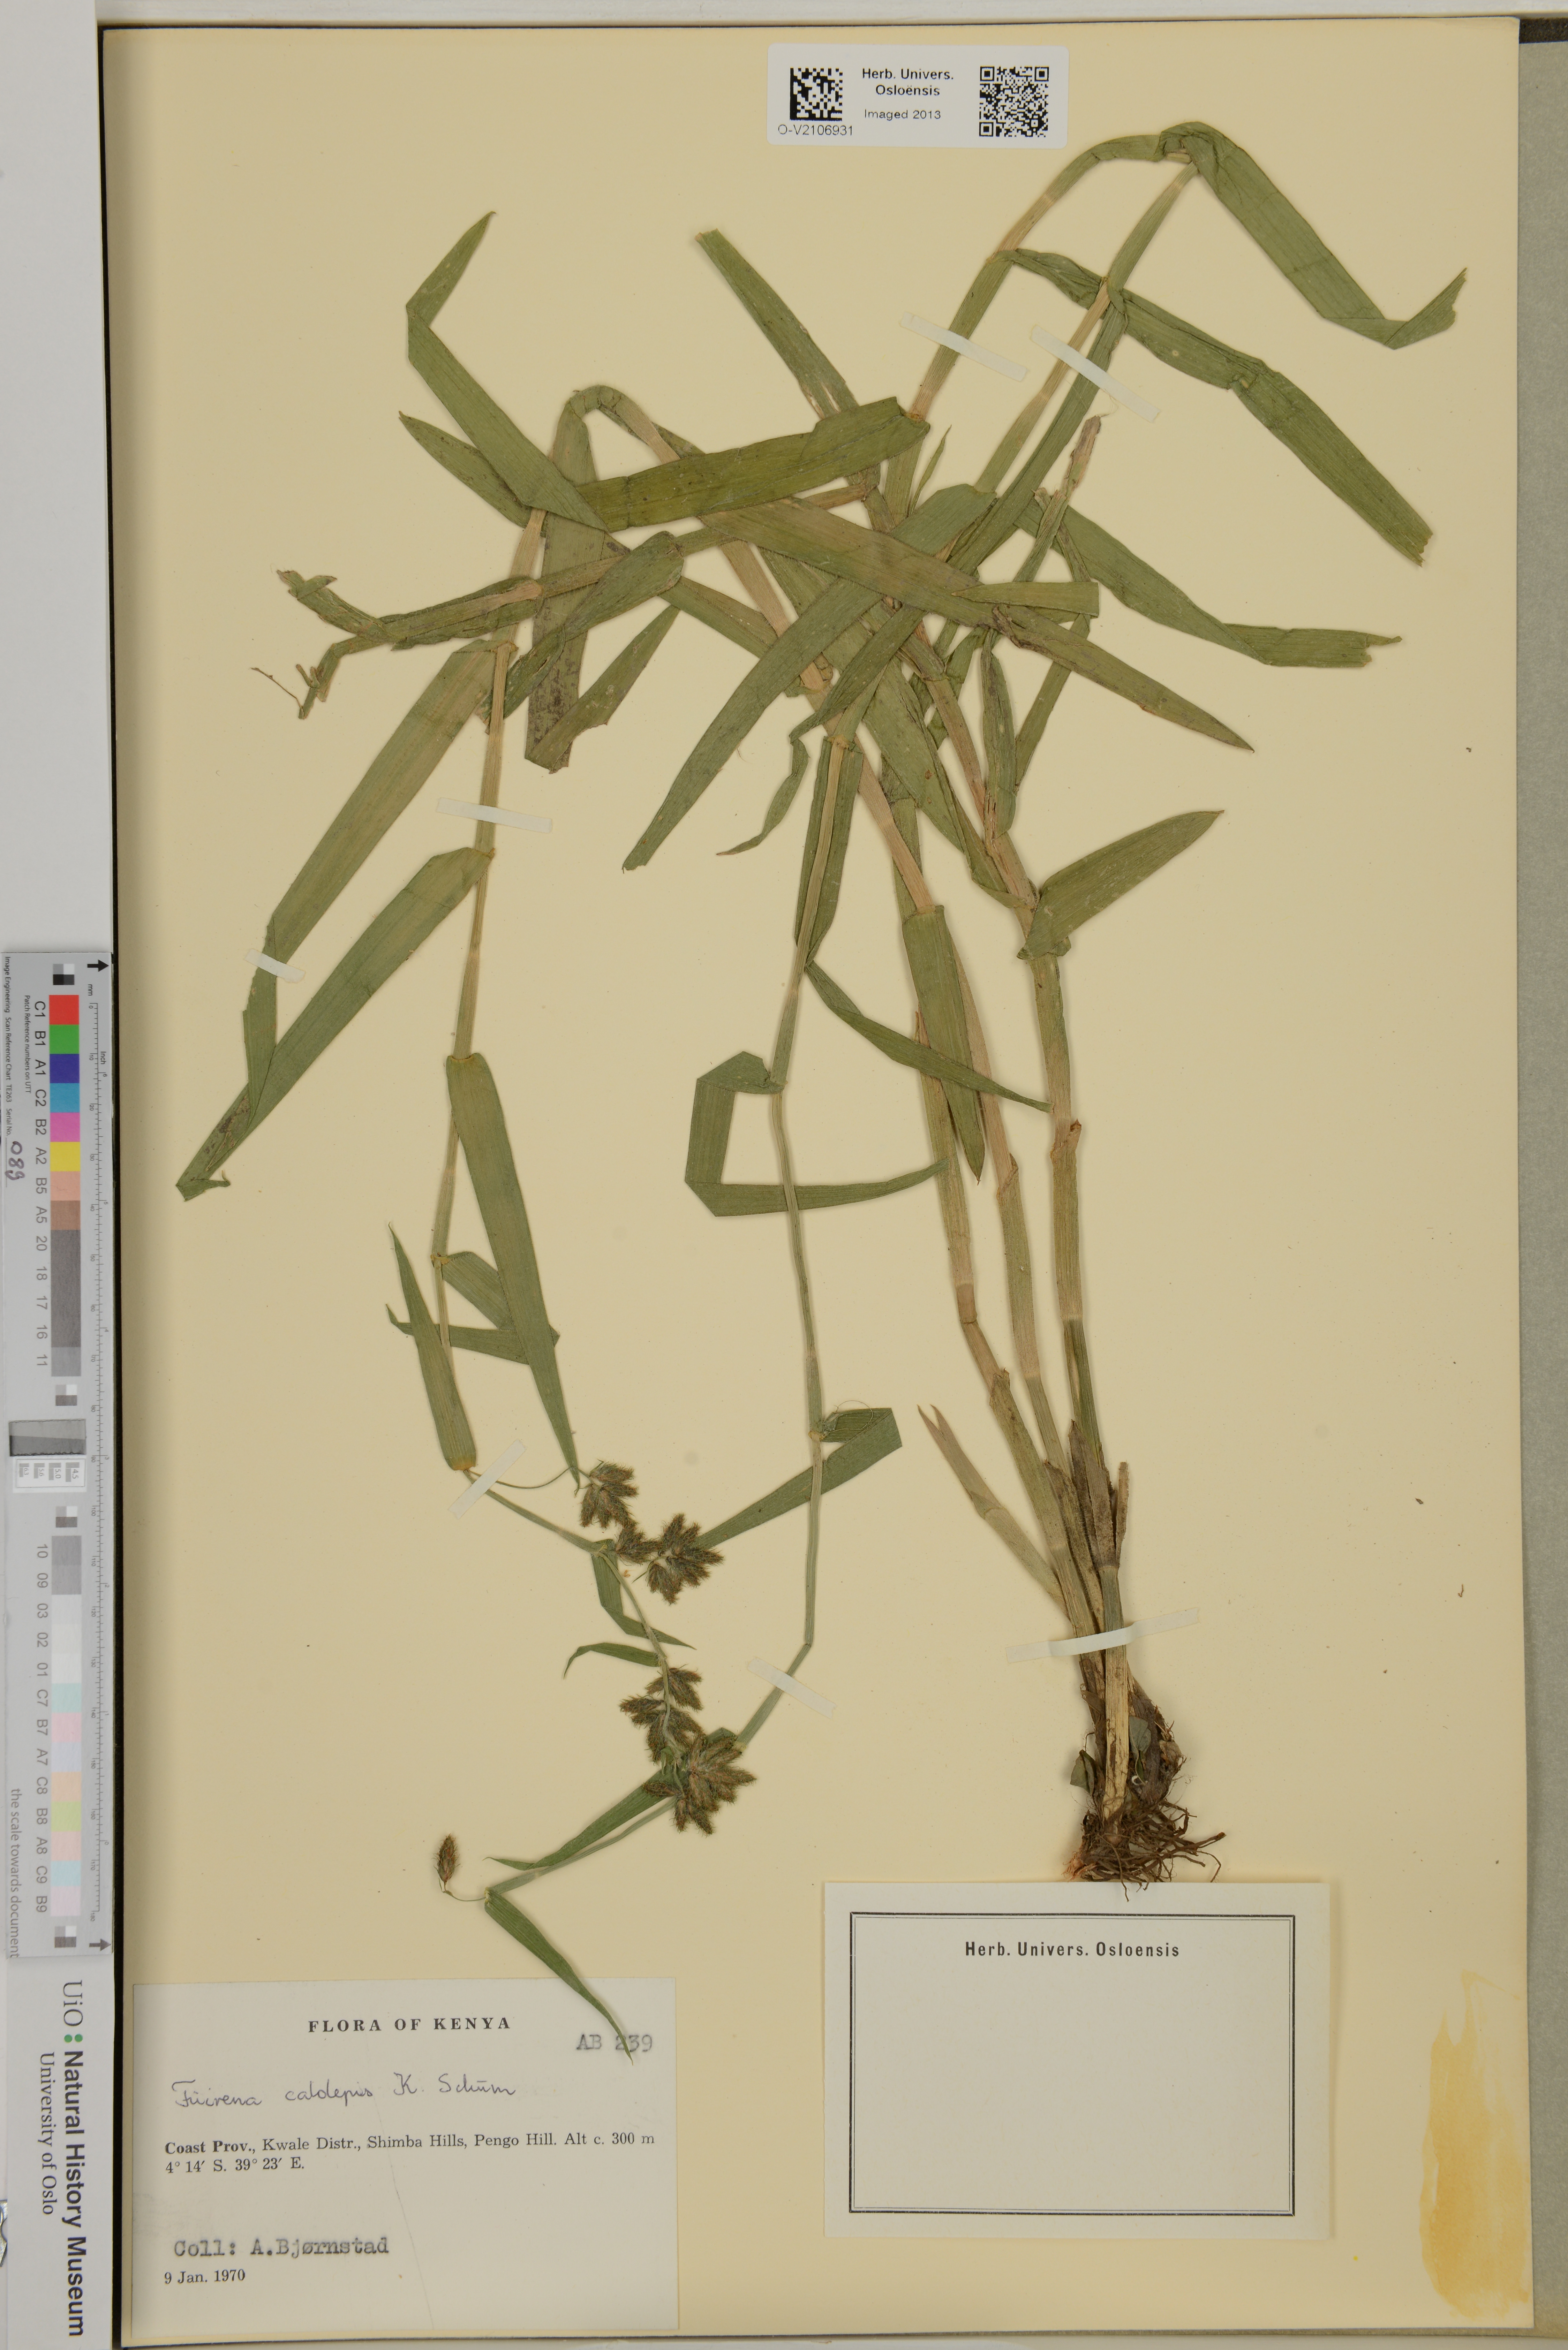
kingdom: Plantae
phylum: Tracheophyta
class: Liliopsida
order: Poales
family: Cyperaceae
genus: Fuirena
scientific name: Fuirena ochreata
